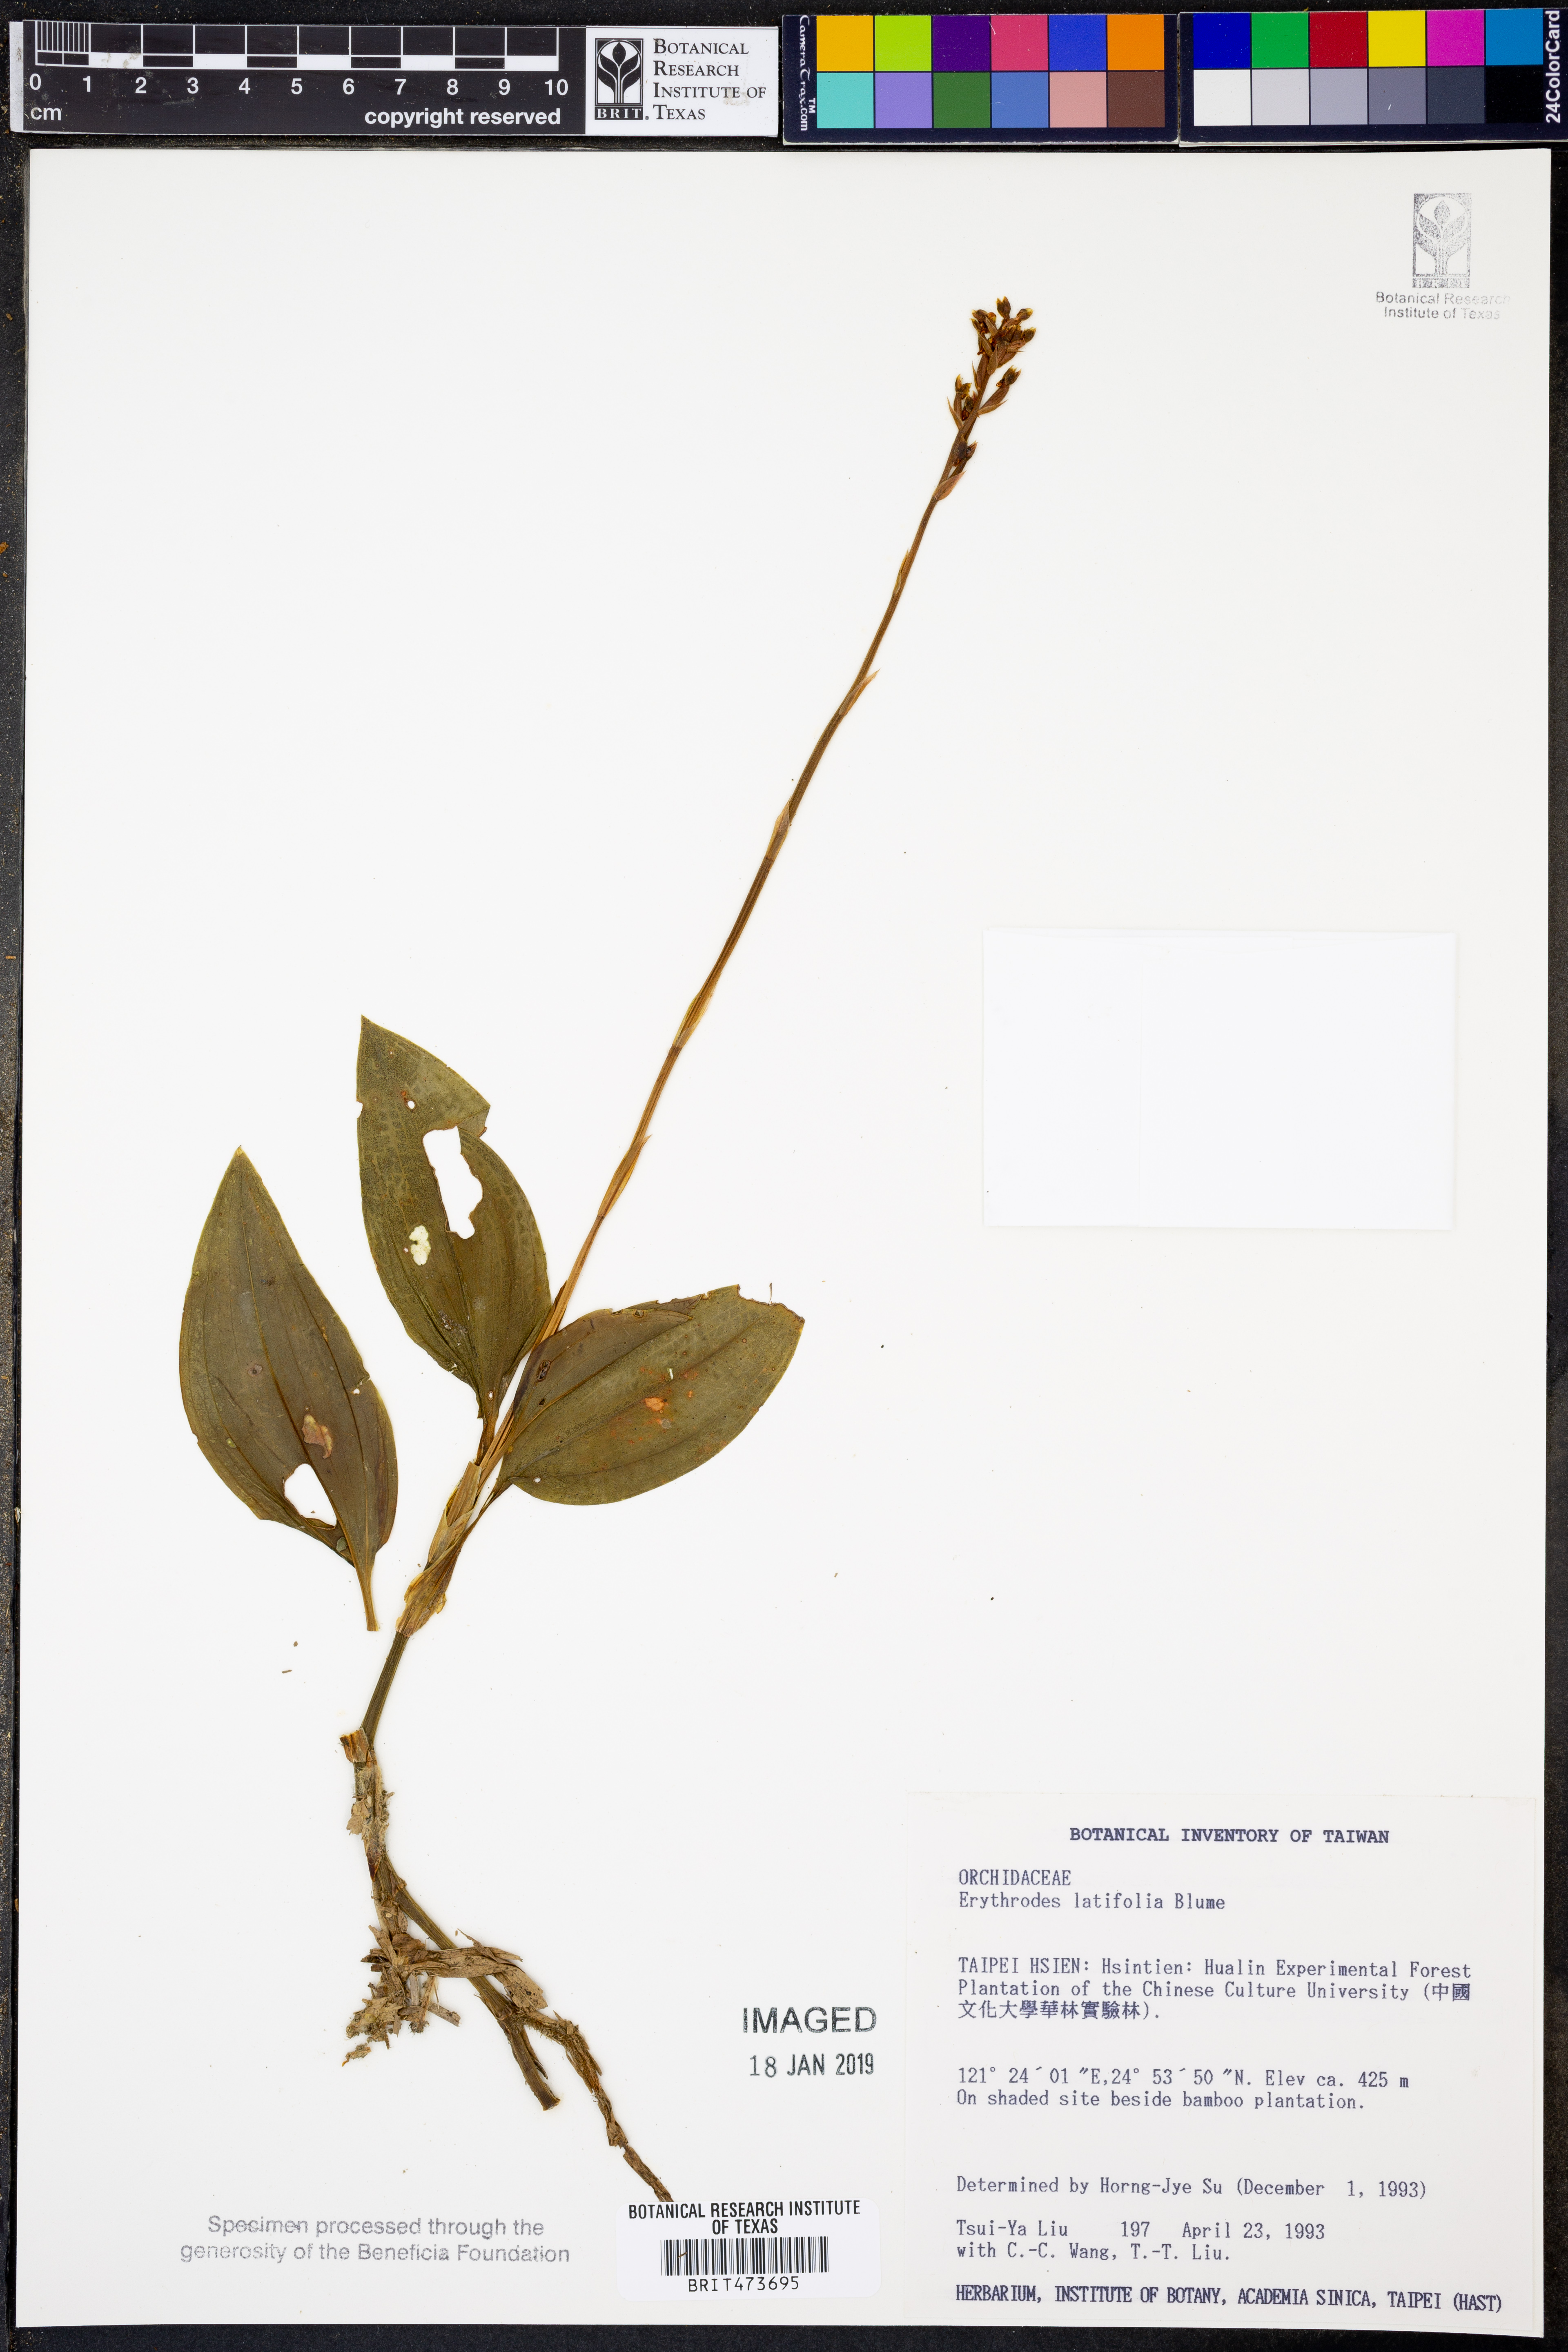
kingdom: Plantae
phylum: Tracheophyta
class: Liliopsida
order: Asparagales
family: Orchidaceae
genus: Erythrodes
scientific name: Erythrodes latifolia
